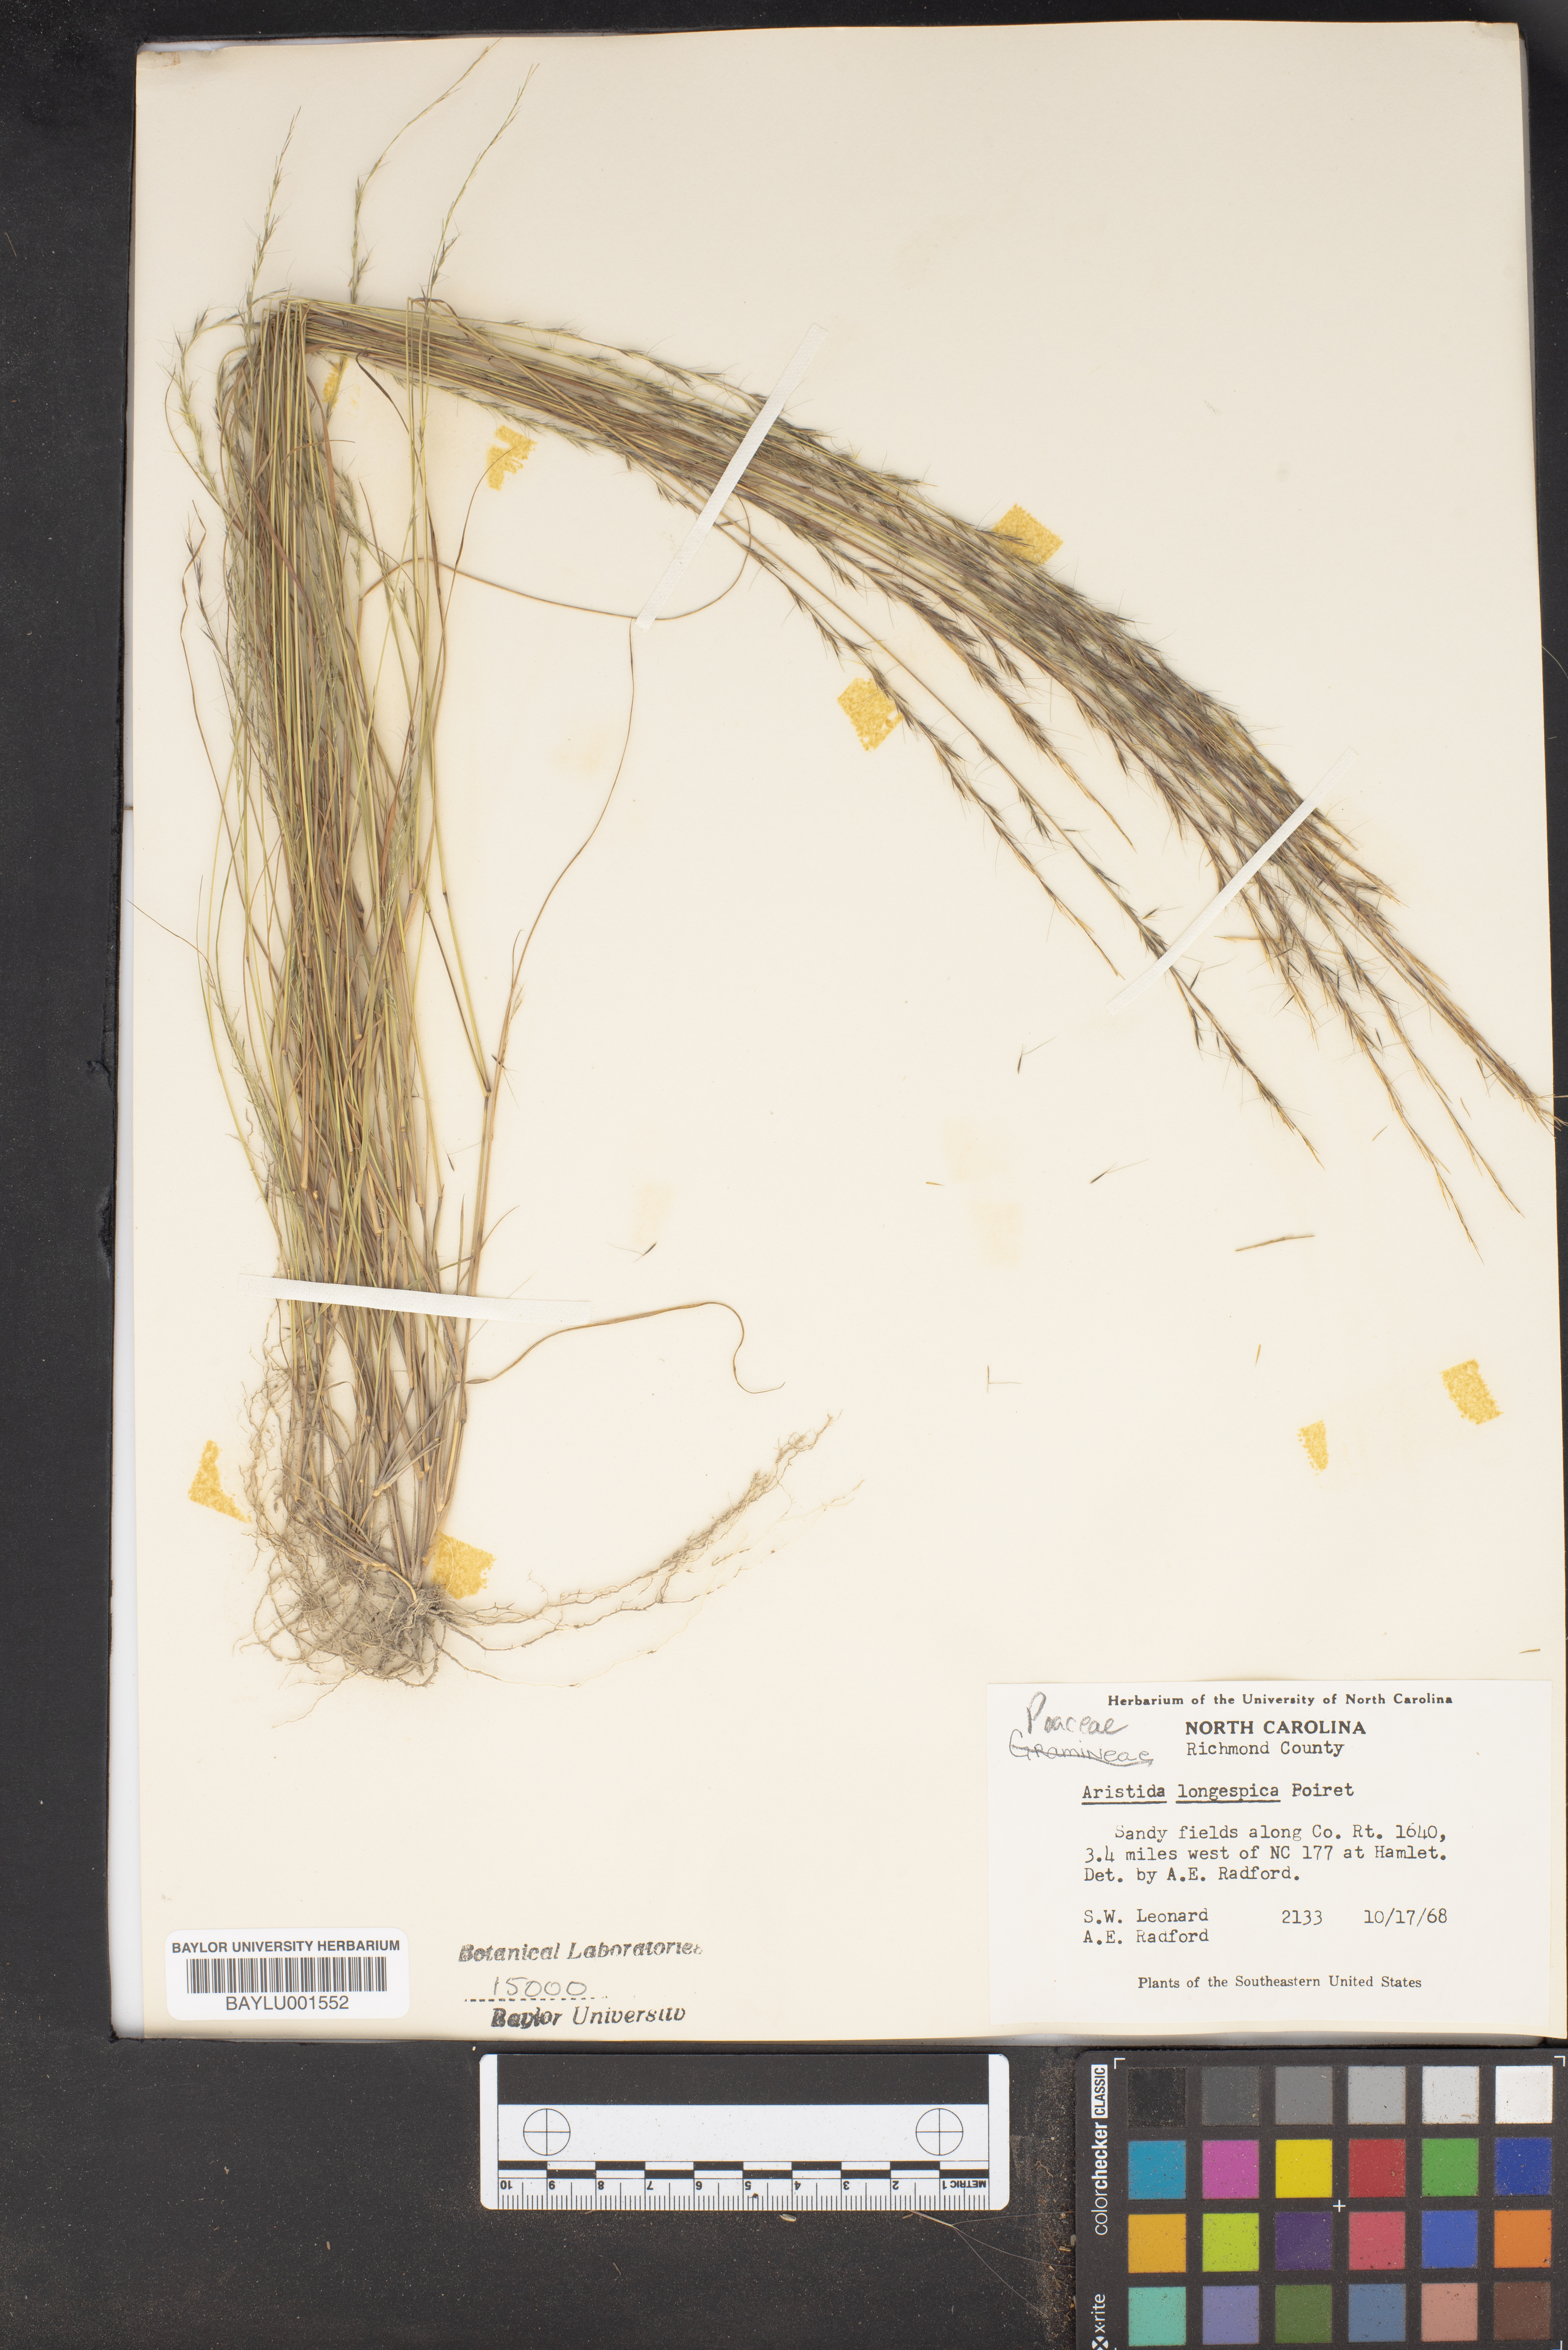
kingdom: Plantae
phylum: Tracheophyta
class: Liliopsida
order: Poales
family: Poaceae
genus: Aristida
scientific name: Aristida longespica
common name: Long-spiked triple-awned grass
